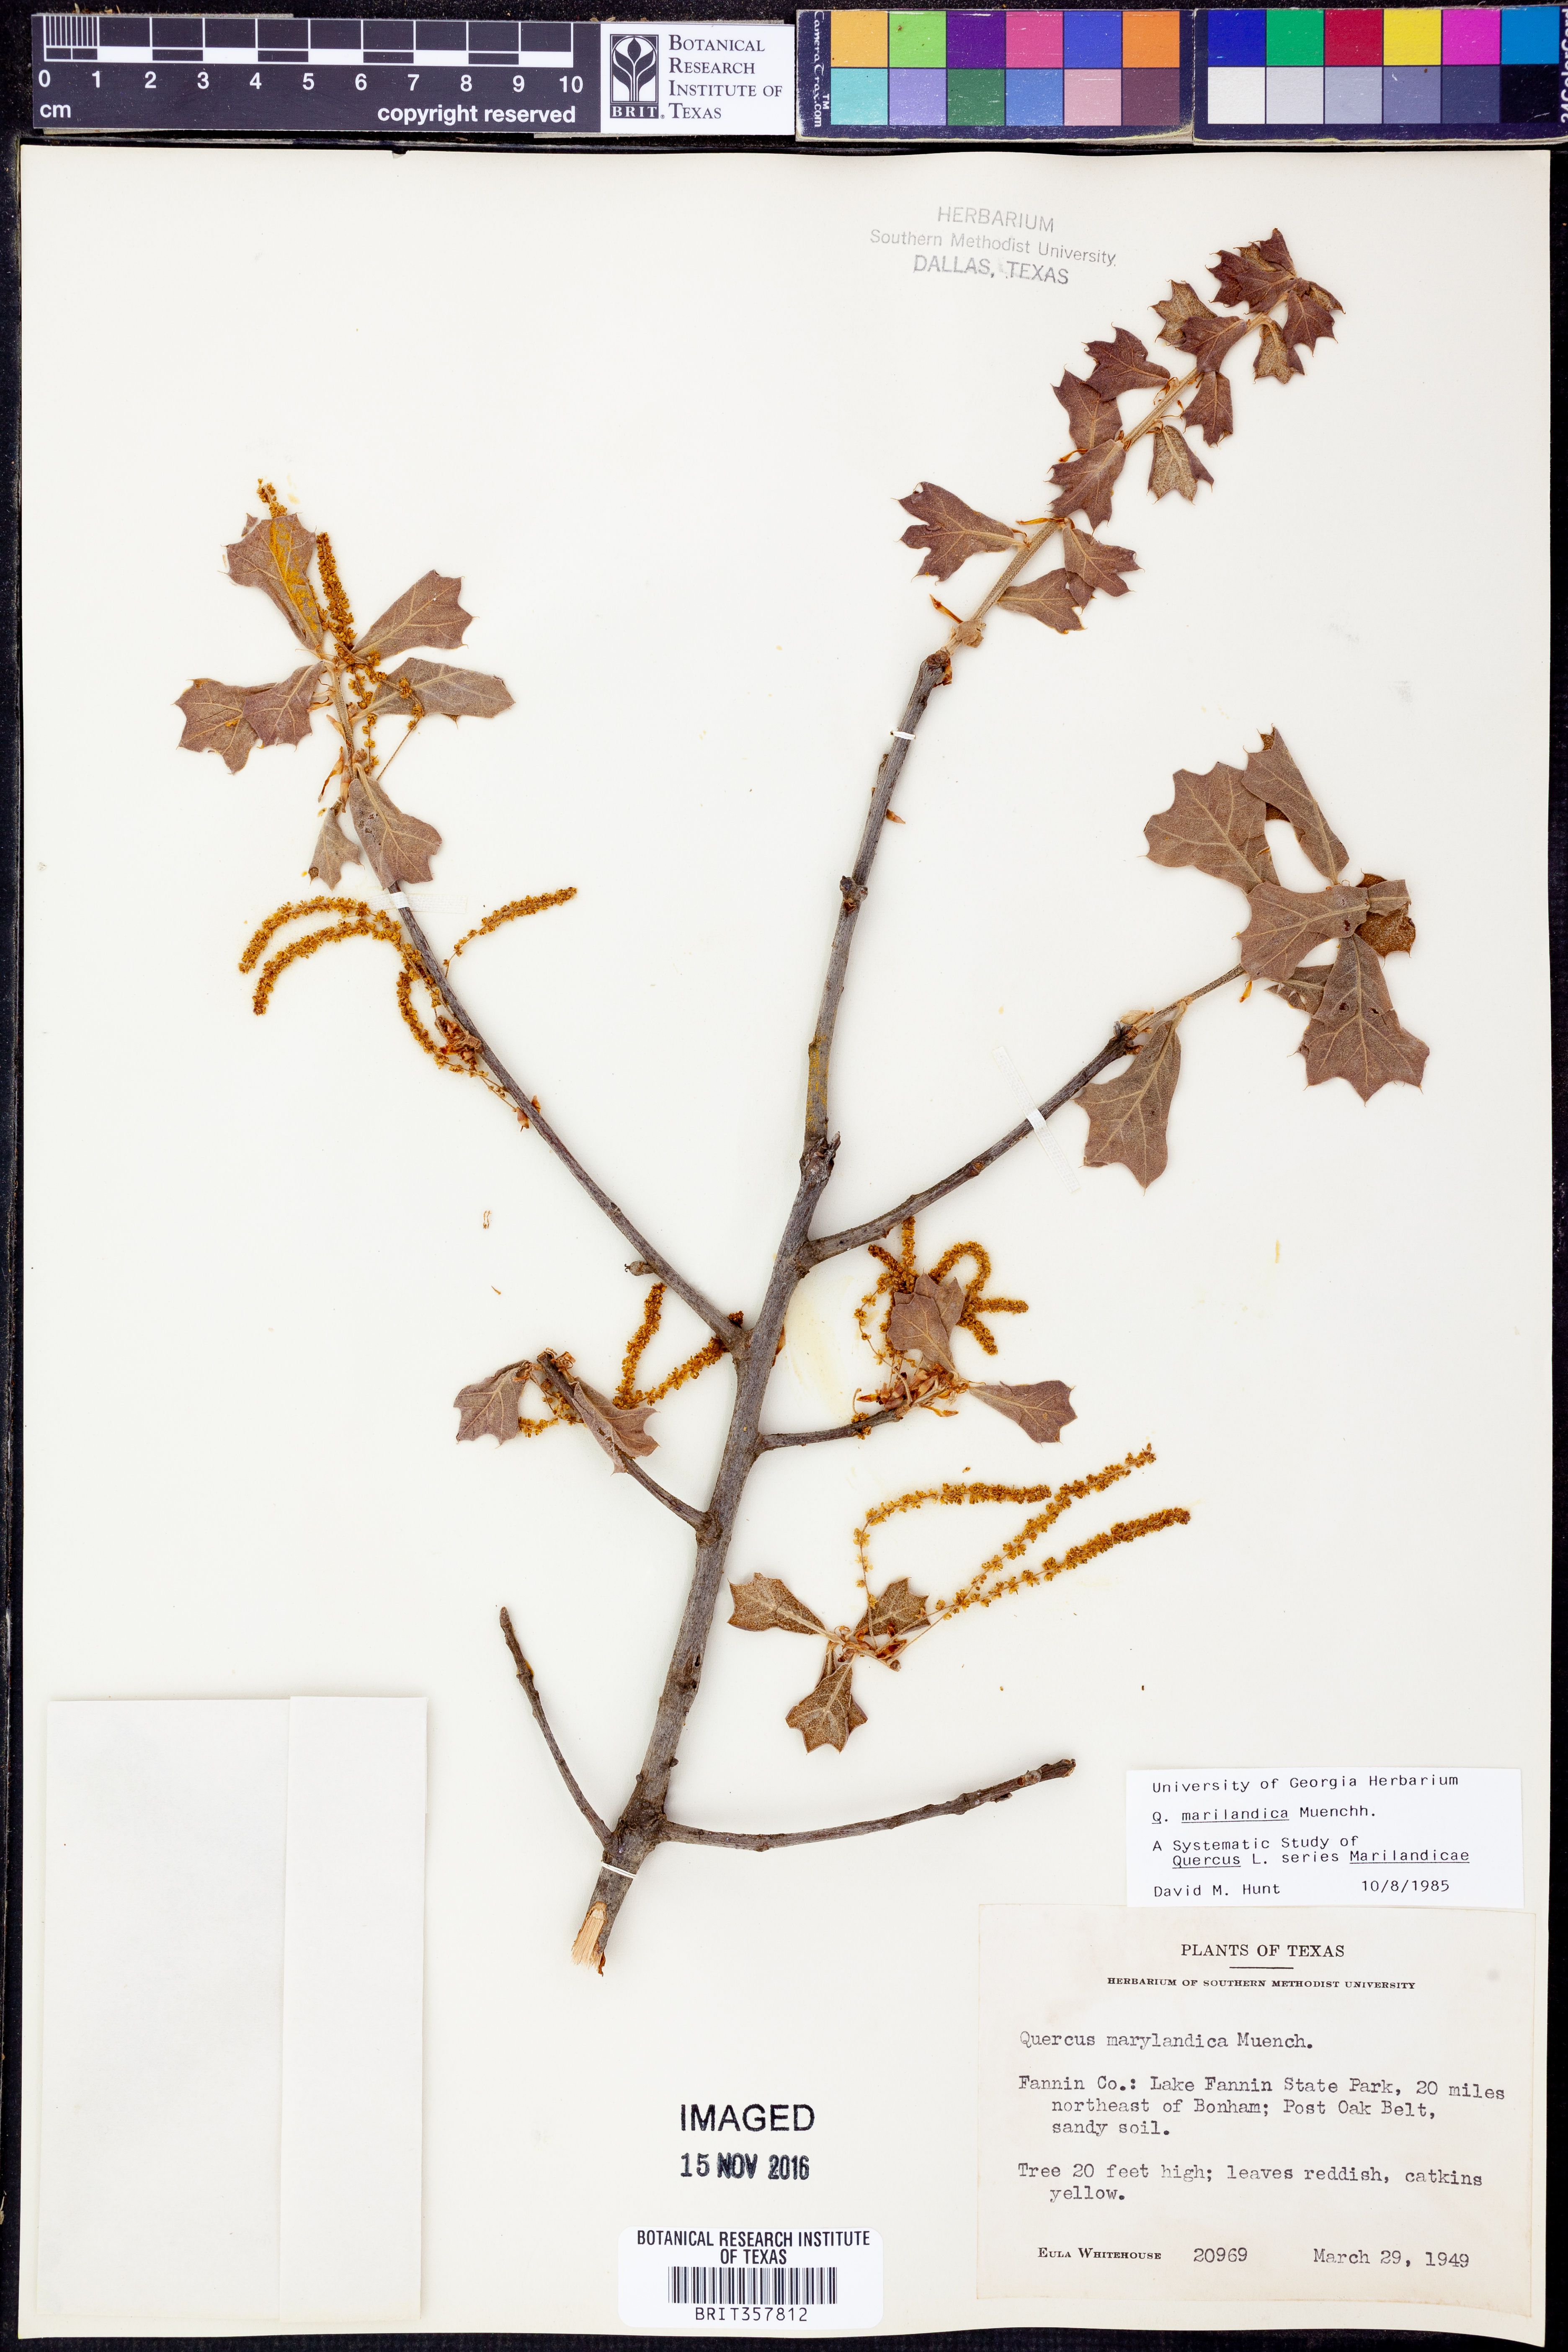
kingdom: Plantae
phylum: Tracheophyta
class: Magnoliopsida
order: Fagales
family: Fagaceae
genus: Quercus
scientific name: Quercus marilandica
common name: Blackjack oak
